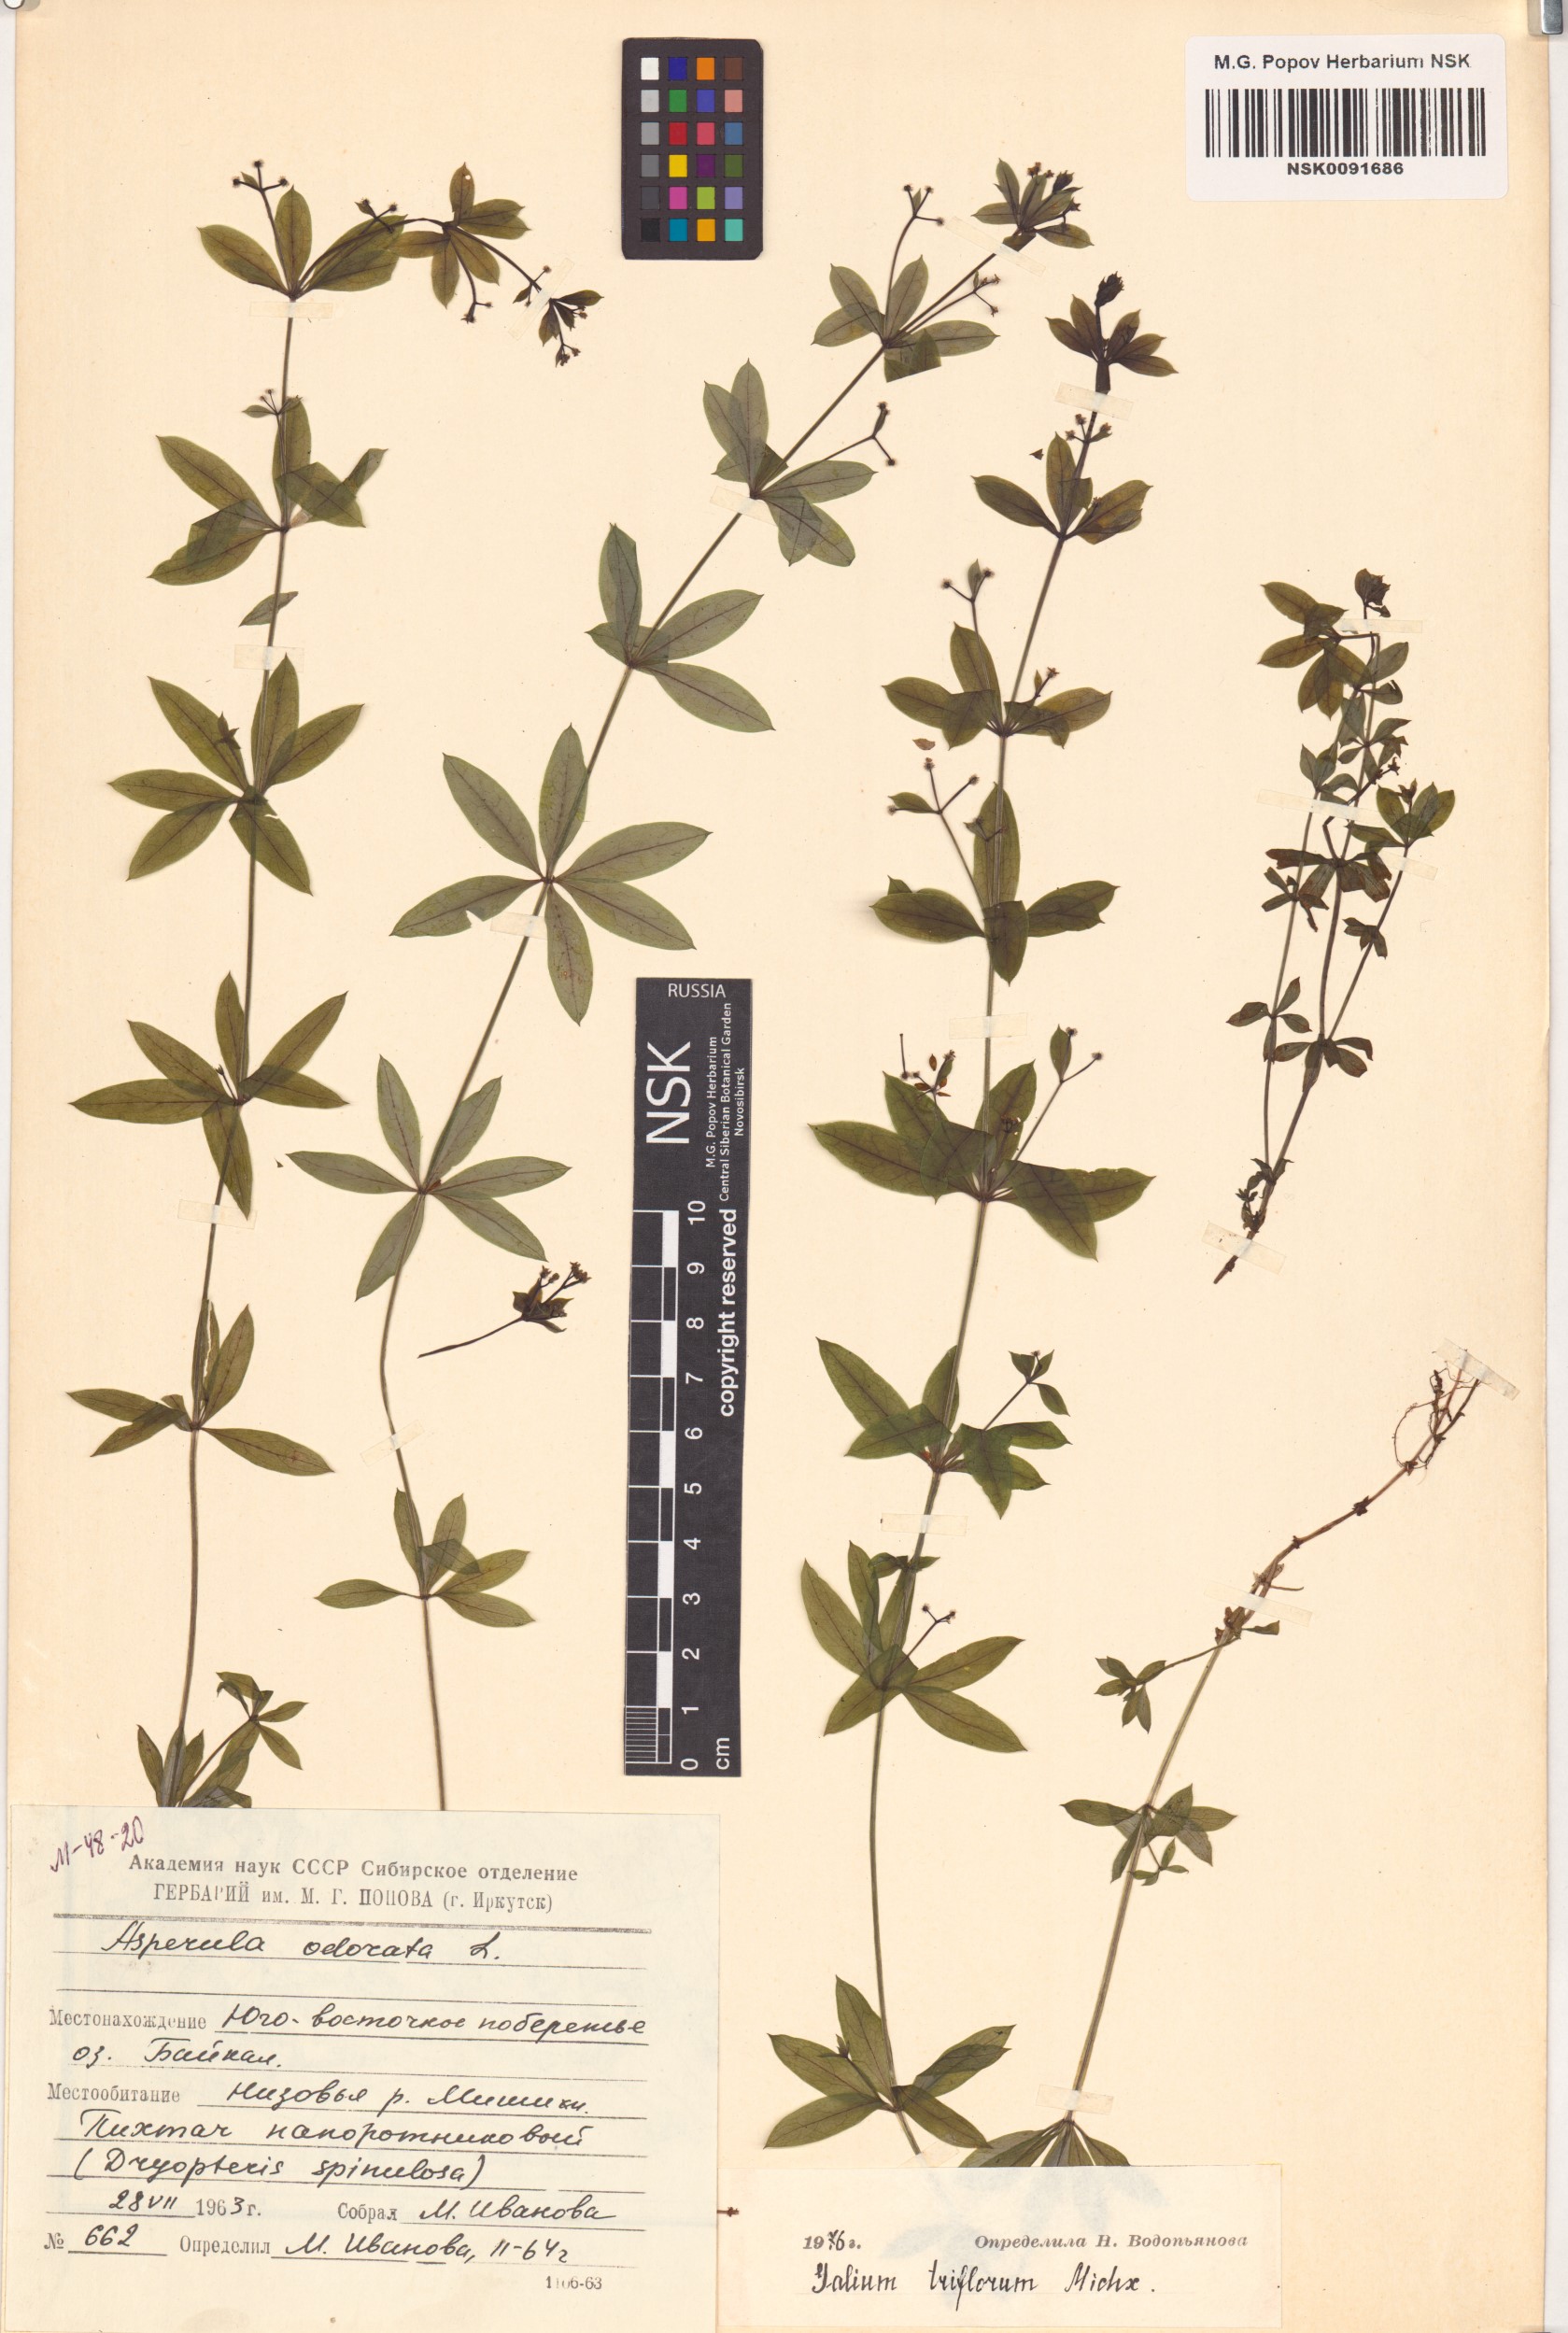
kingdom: Plantae
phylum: Tracheophyta
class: Magnoliopsida
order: Gentianales
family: Rubiaceae
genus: Galium
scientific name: Galium triflorum
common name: Fragrant bedstraw
